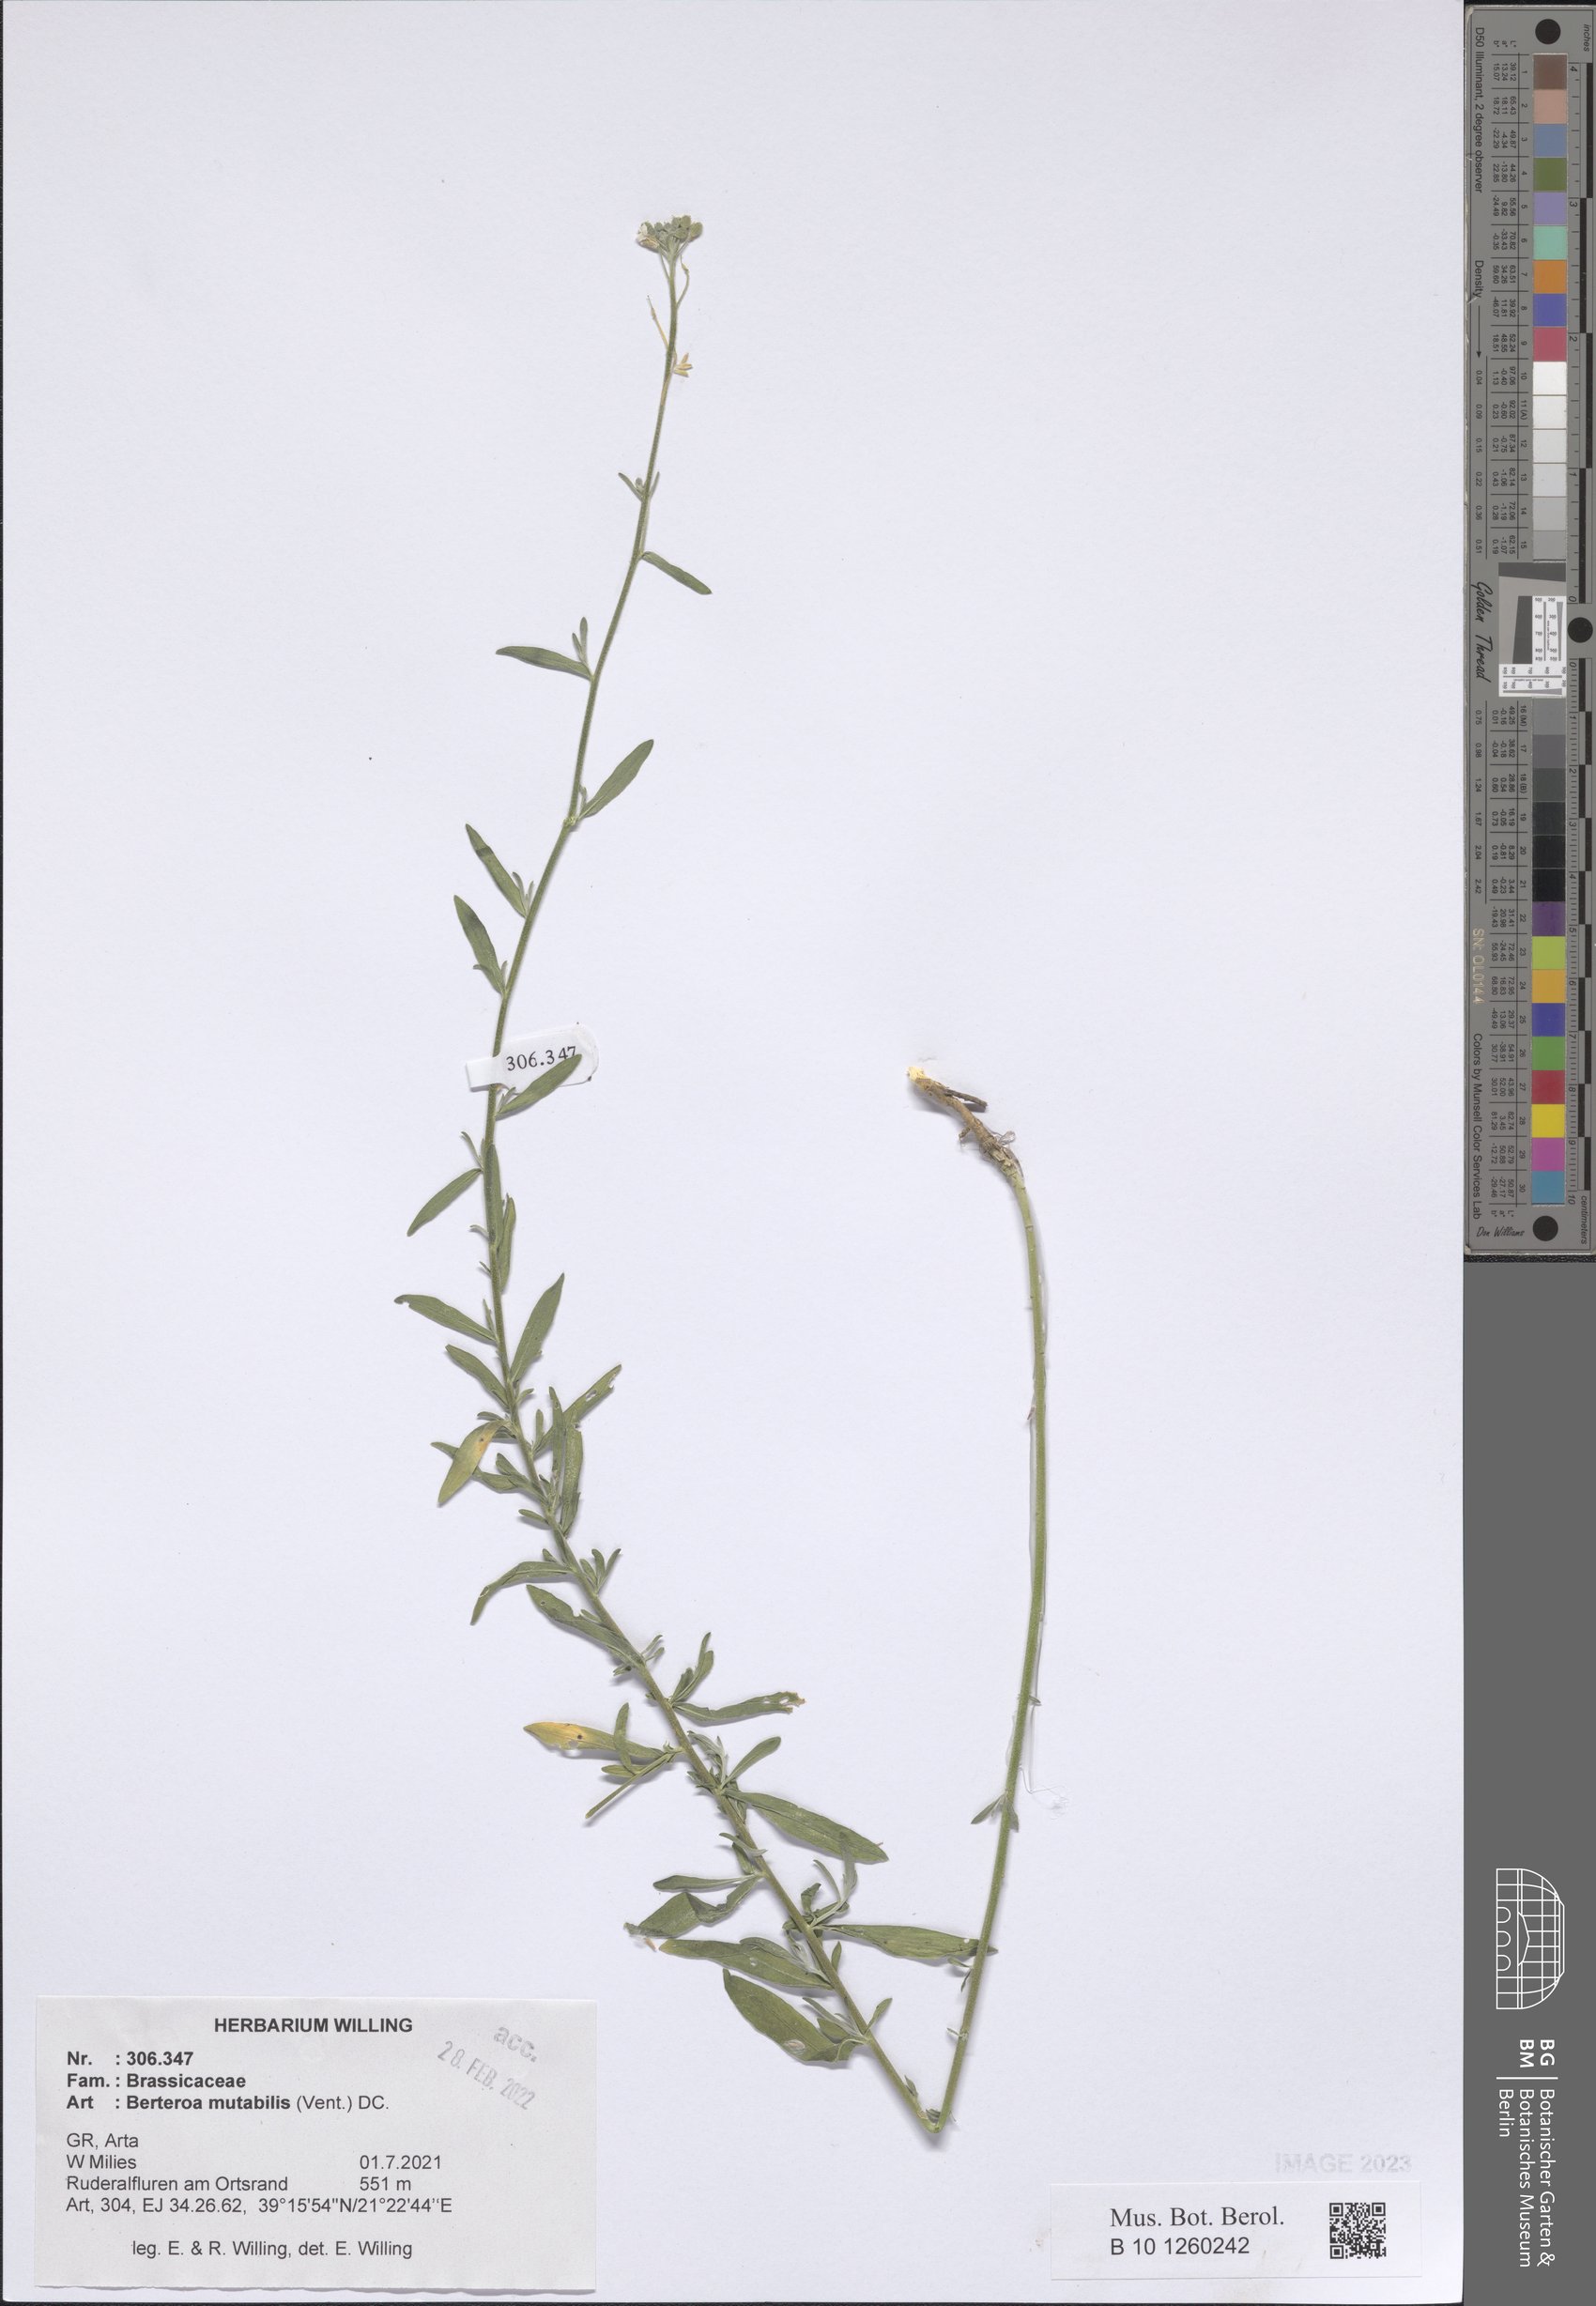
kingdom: Plantae
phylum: Tracheophyta
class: Magnoliopsida
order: Brassicales
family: Brassicaceae
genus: Berteroa
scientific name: Berteroa mutabilis
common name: Roadside false madwort
